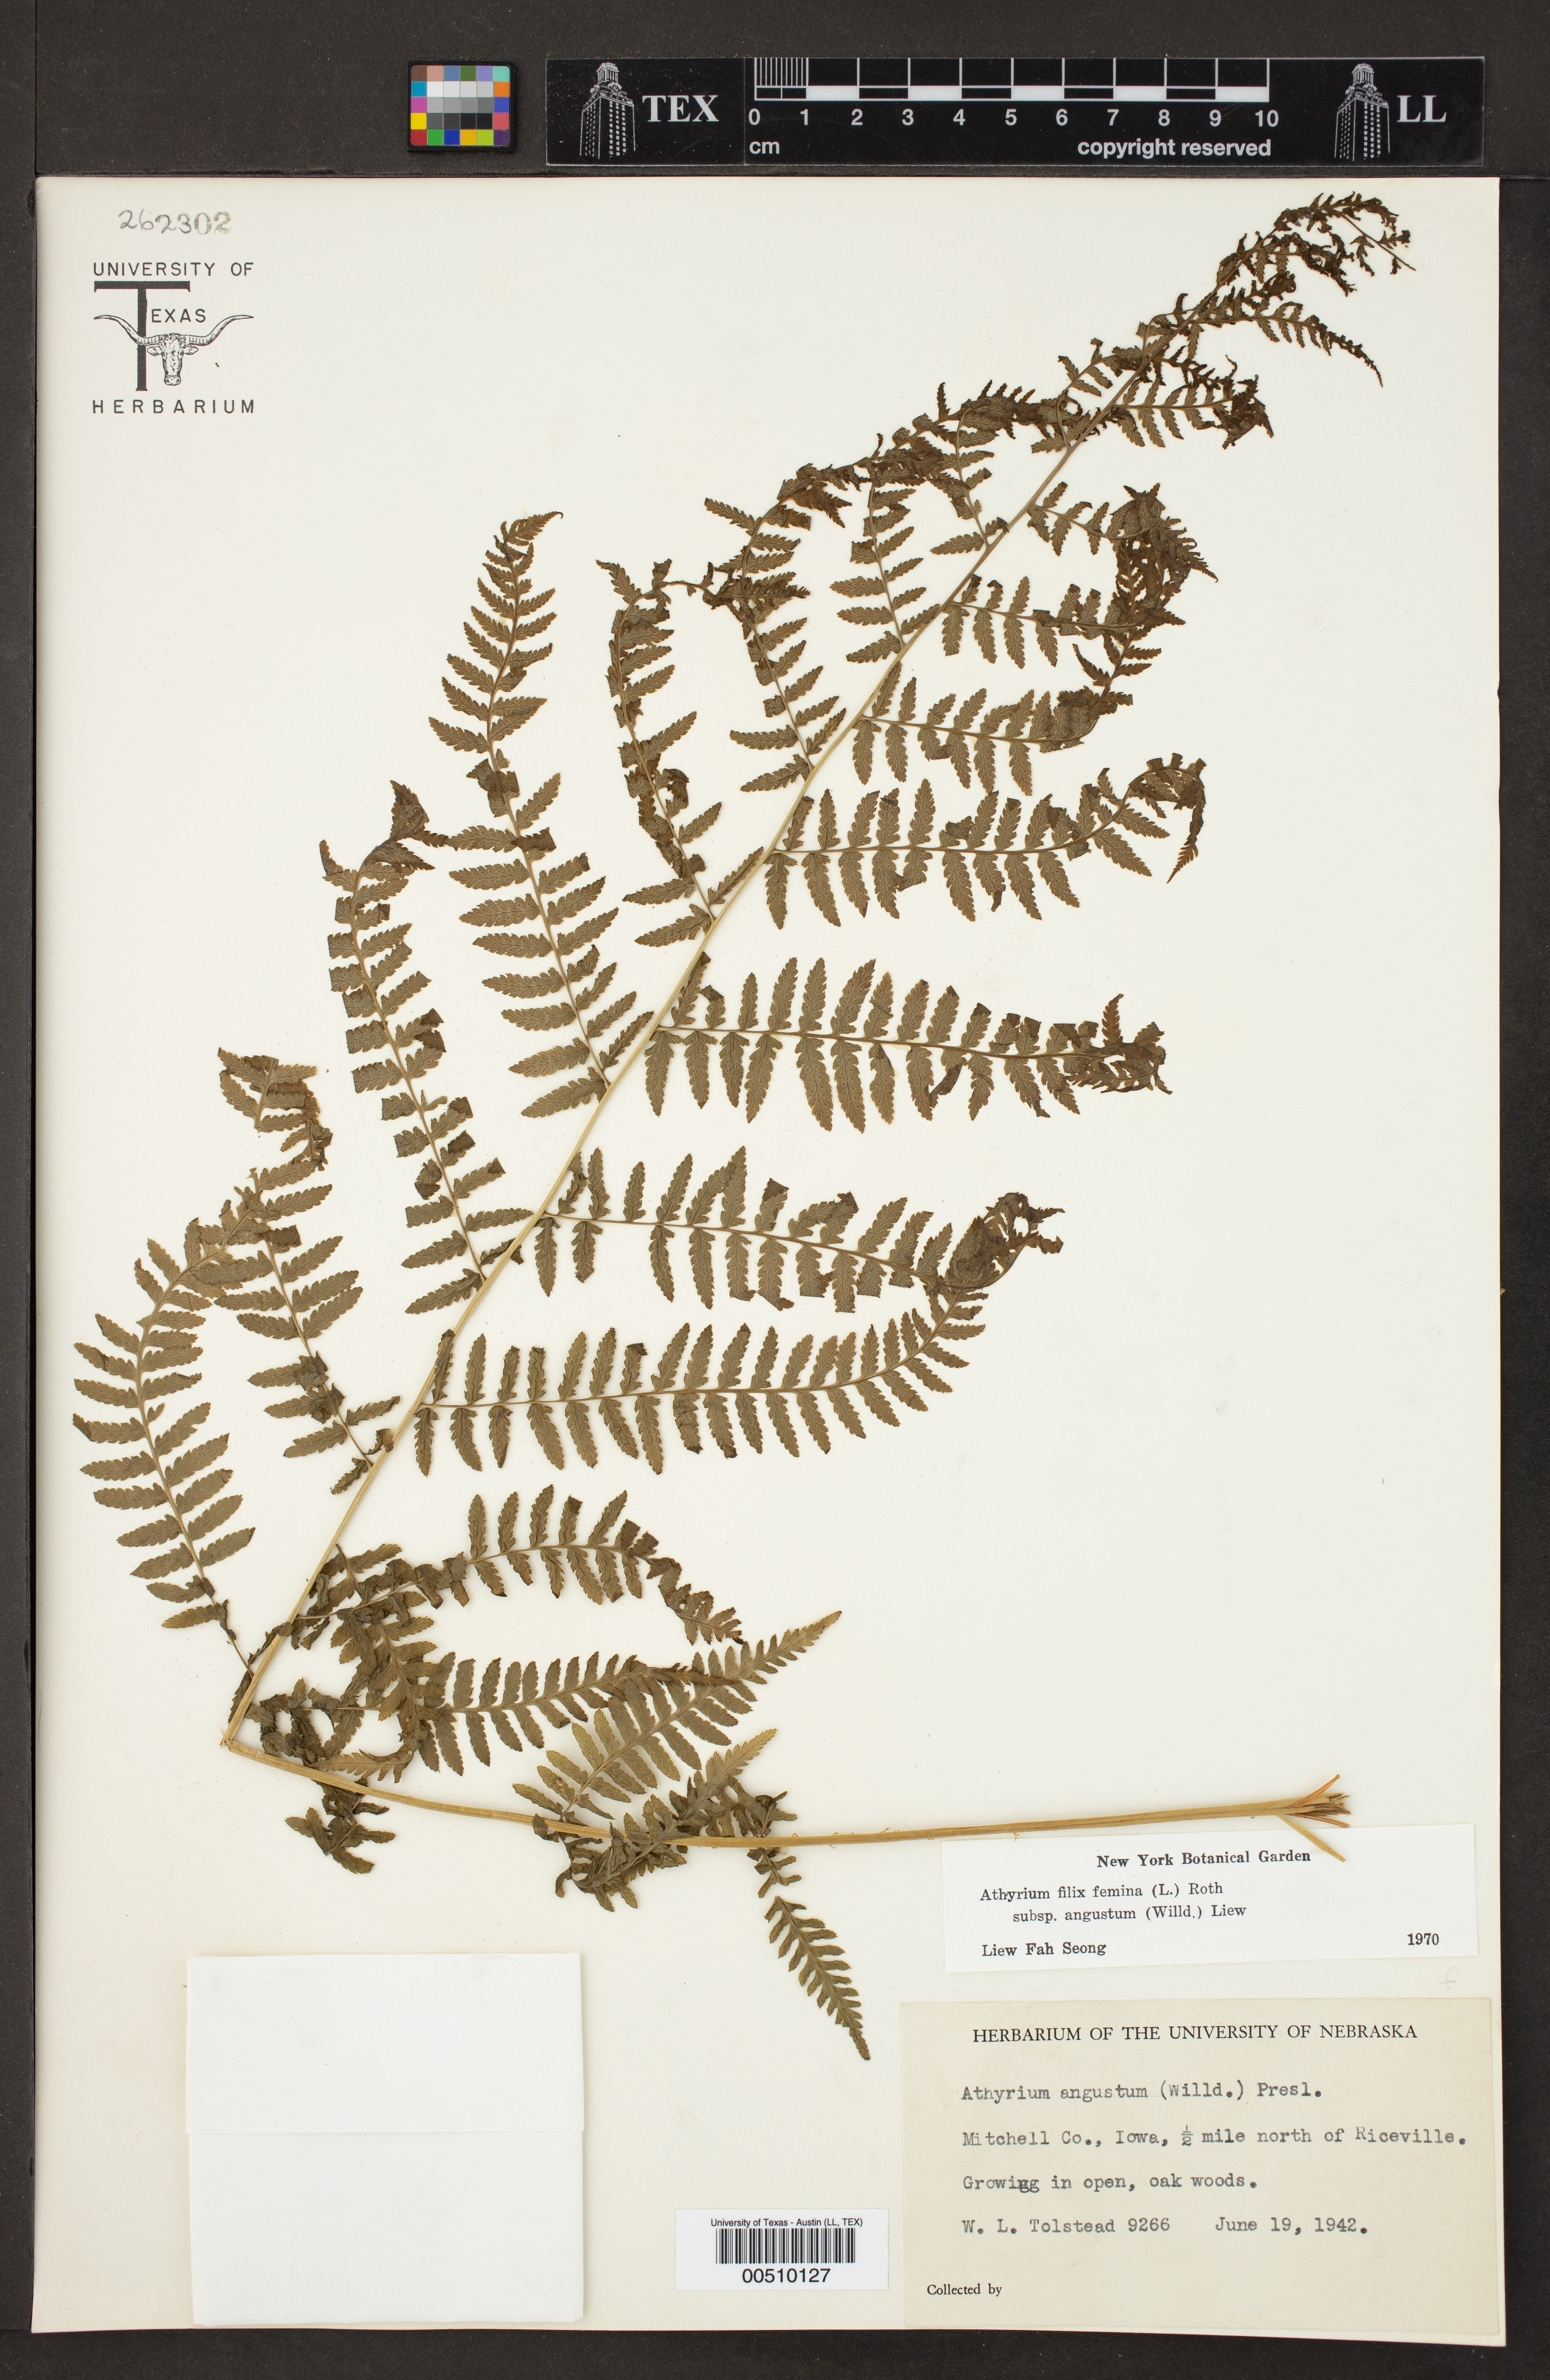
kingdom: Plantae
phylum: Tracheophyta
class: Polypodiopsida
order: Polypodiales
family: Athyriaceae
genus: Athyrium
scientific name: Athyrium angustum
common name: Northern lady fern
